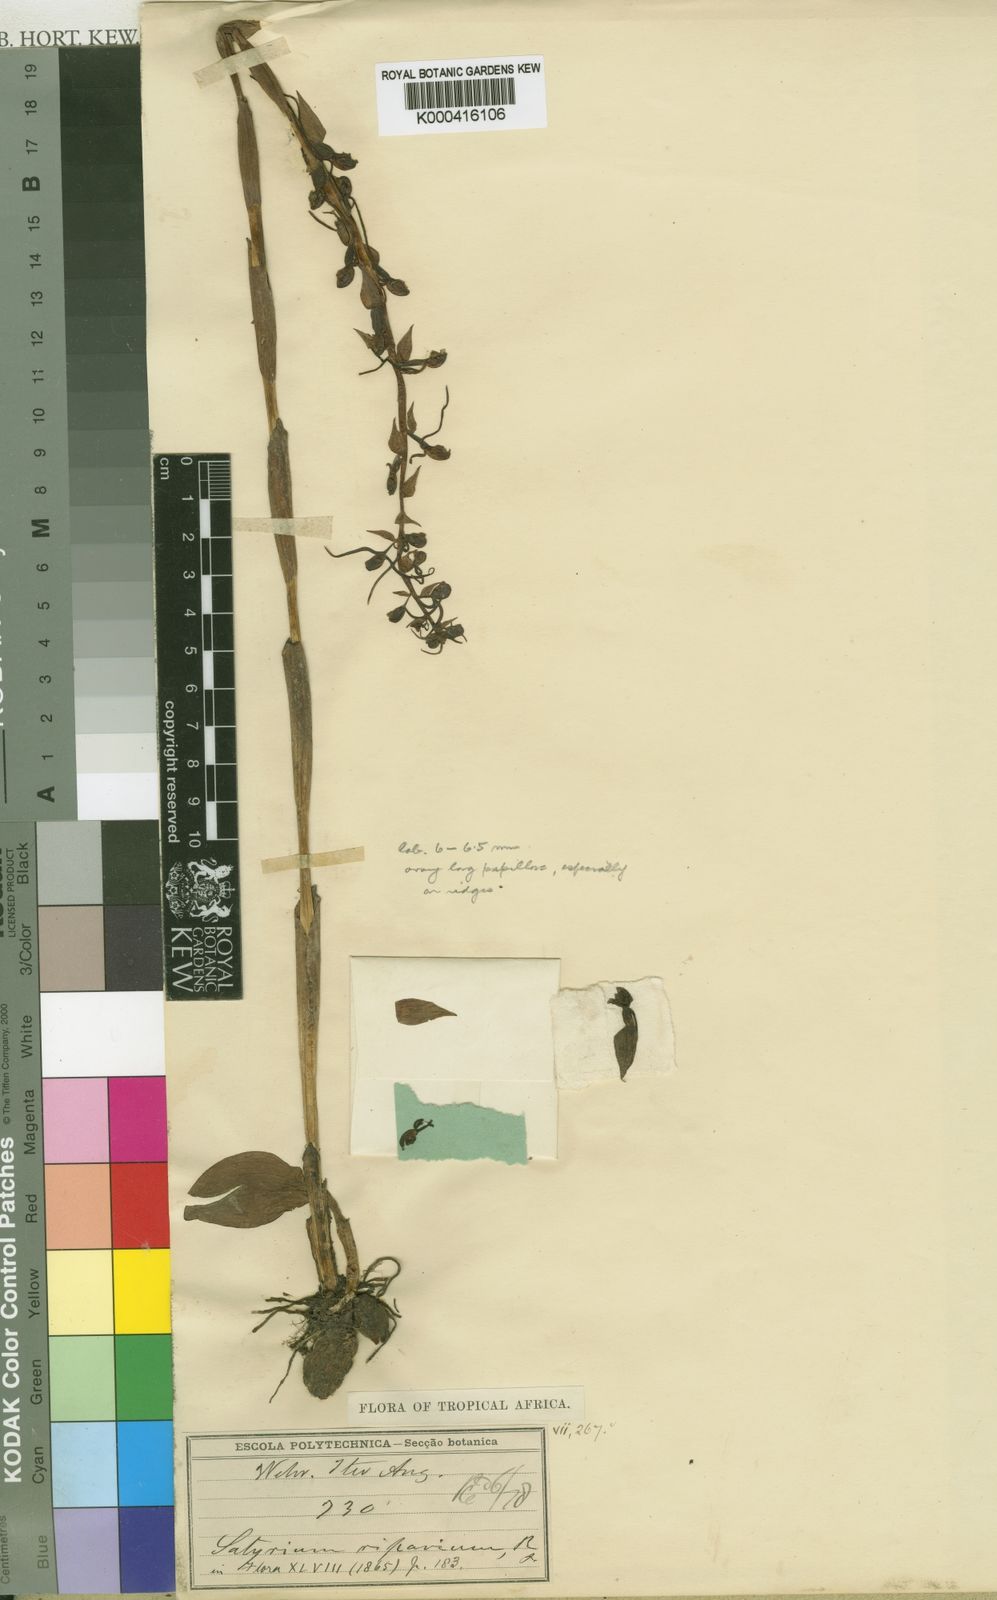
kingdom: Plantae
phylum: Tracheophyta
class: Liliopsida
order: Asparagales
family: Orchidaceae
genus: Satyrium
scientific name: Satyrium riparium
